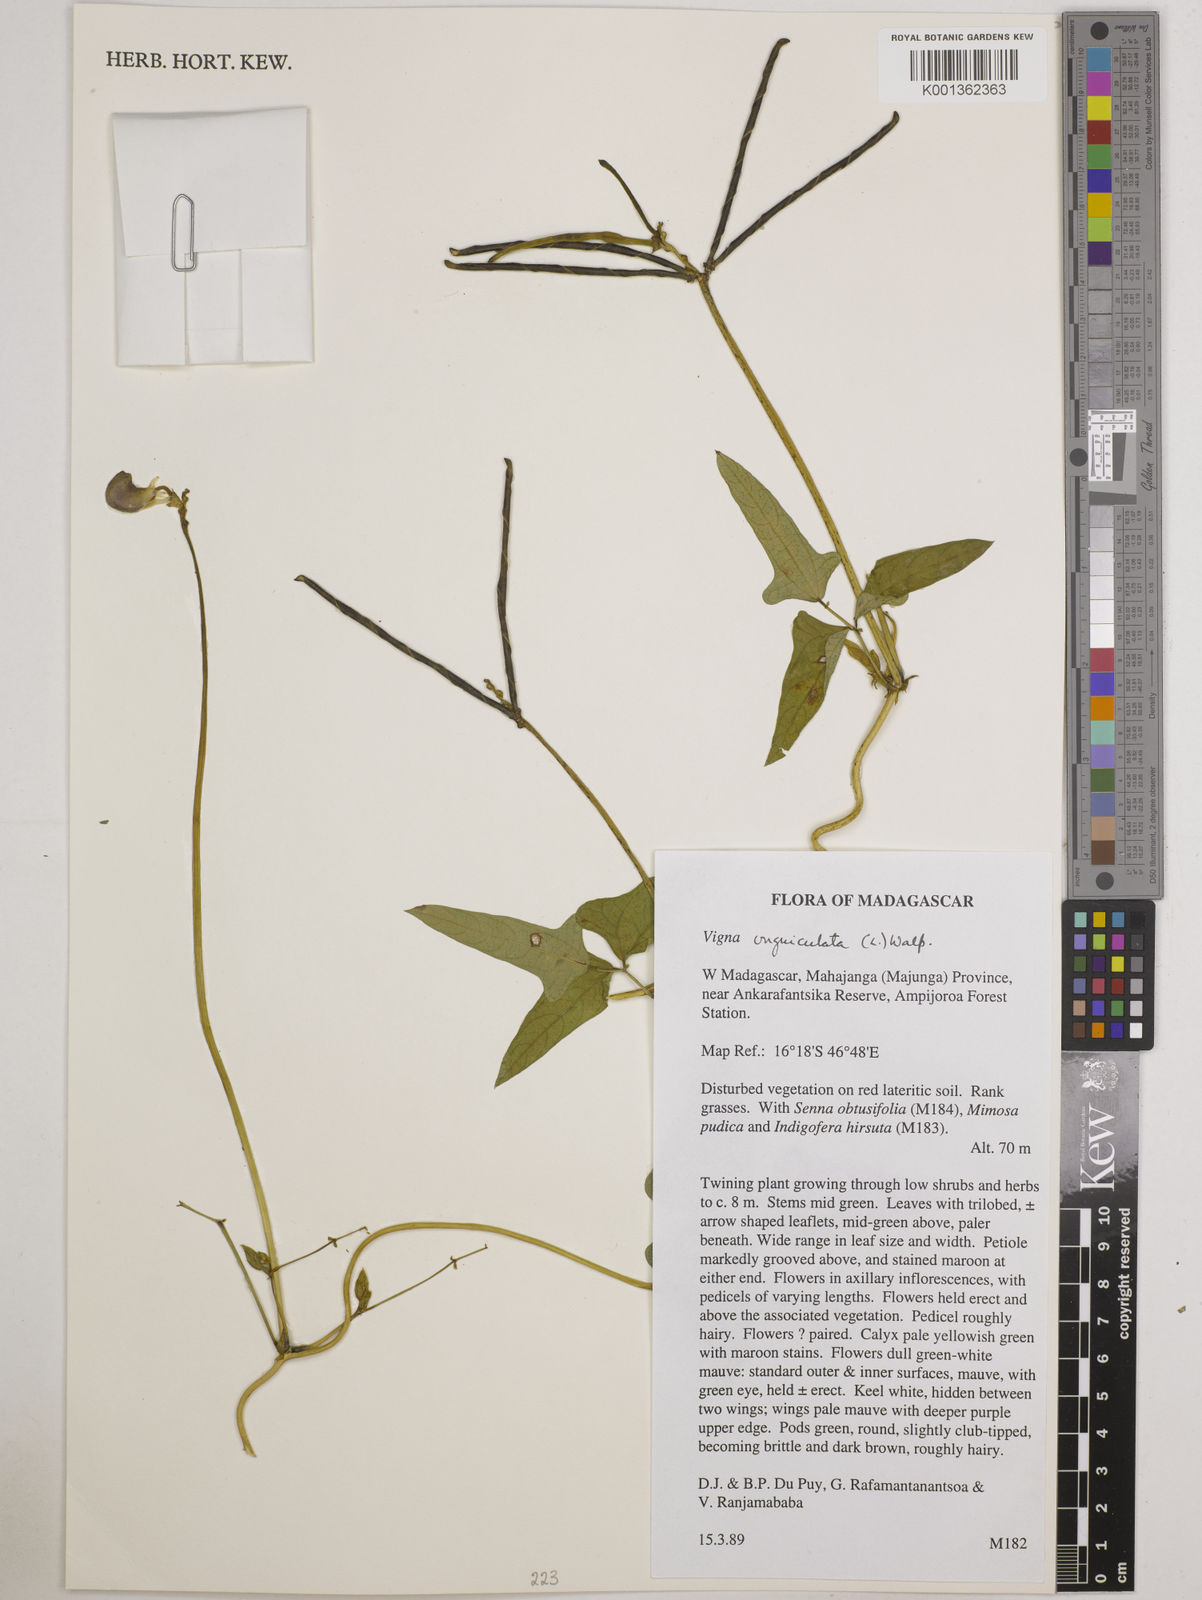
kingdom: Plantae
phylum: Tracheophyta
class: Magnoliopsida
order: Fabales
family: Fabaceae
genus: Vigna
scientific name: Vigna unguiculata
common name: Cowpea
